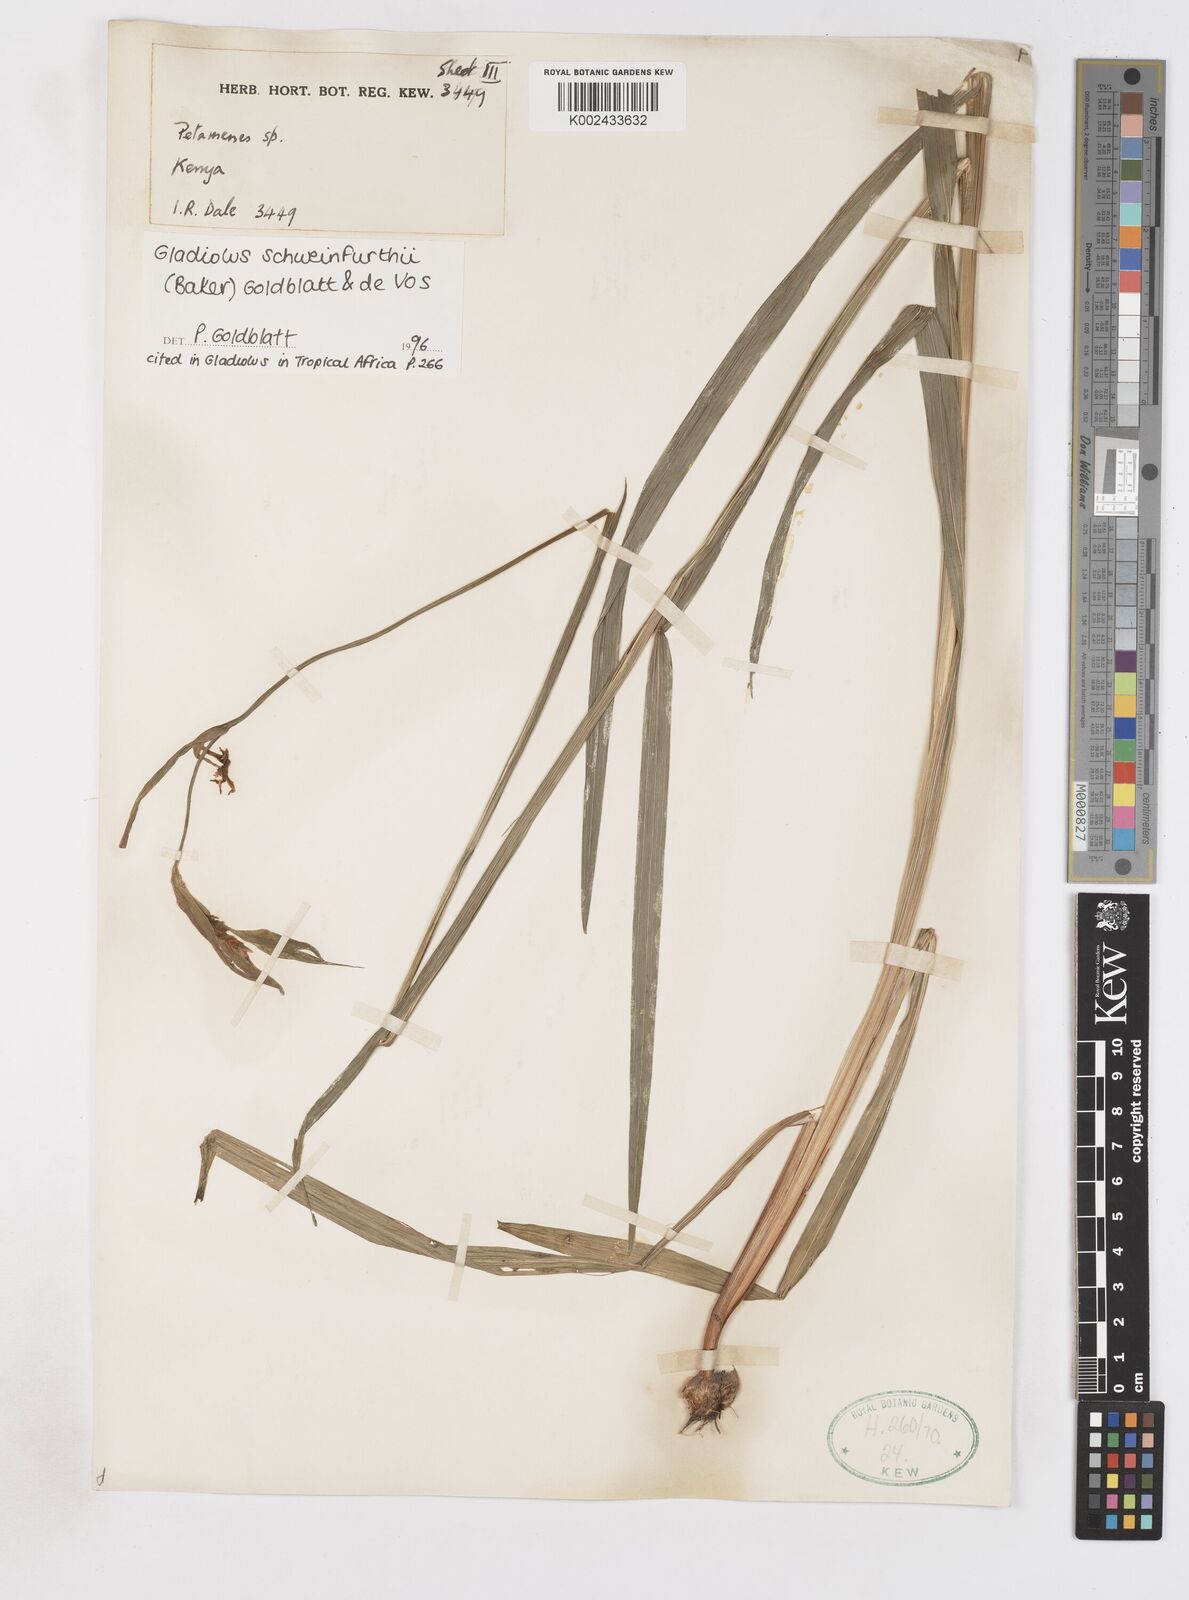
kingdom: Plantae
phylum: Tracheophyta
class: Liliopsida
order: Asparagales
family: Iridaceae
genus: Gladiolus
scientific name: Gladiolus schweinfurthii
